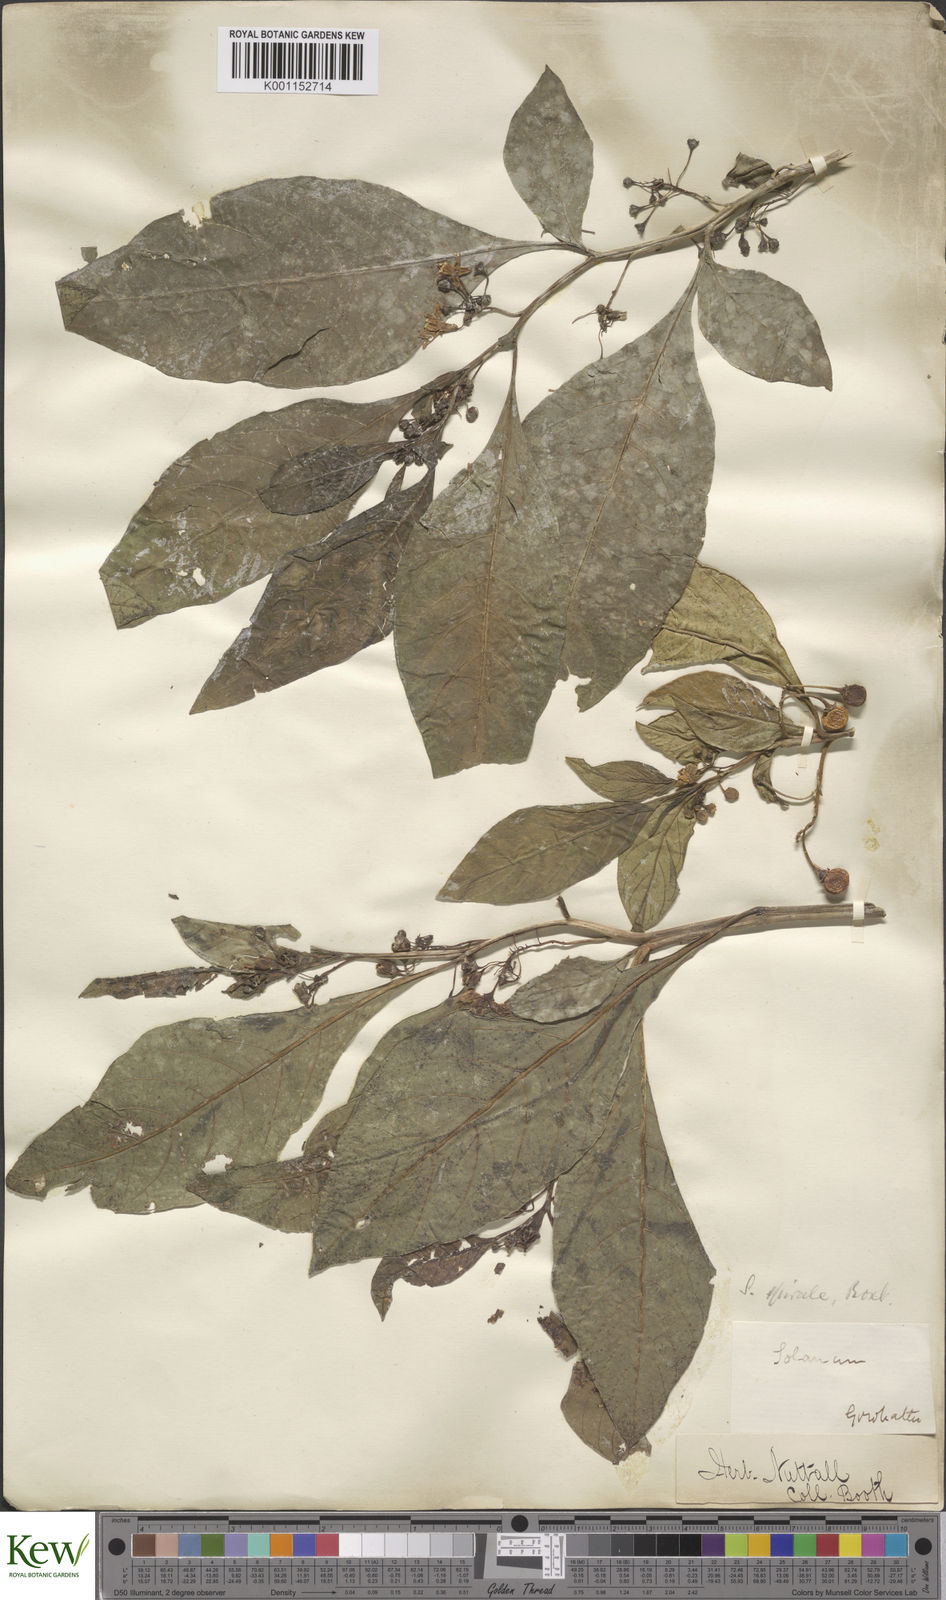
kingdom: Plantae
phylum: Tracheophyta
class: Magnoliopsida
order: Solanales
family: Solanaceae
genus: Solanum
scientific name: Solanum spirale
